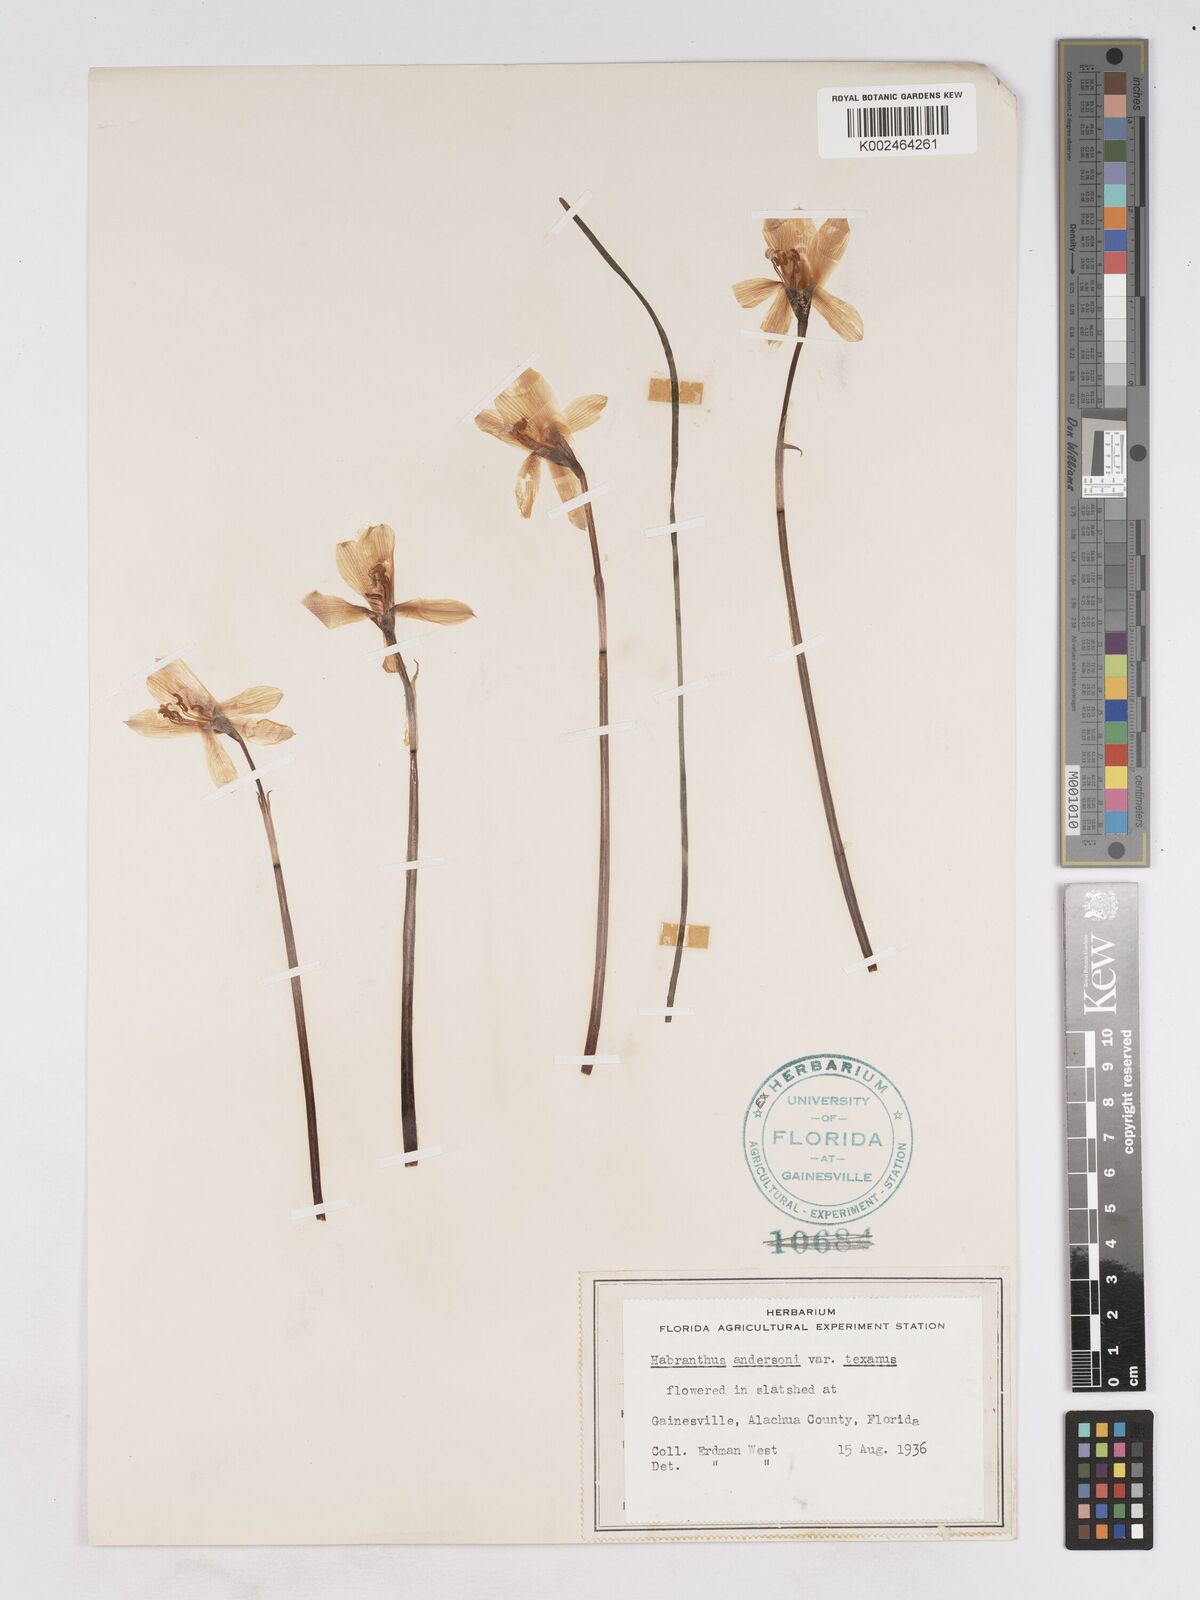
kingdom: Plantae
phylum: Tracheophyta
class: Liliopsida
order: Asparagales
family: Amaryllidaceae
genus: Zephyranthes
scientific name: Zephyranthes tubispatha
